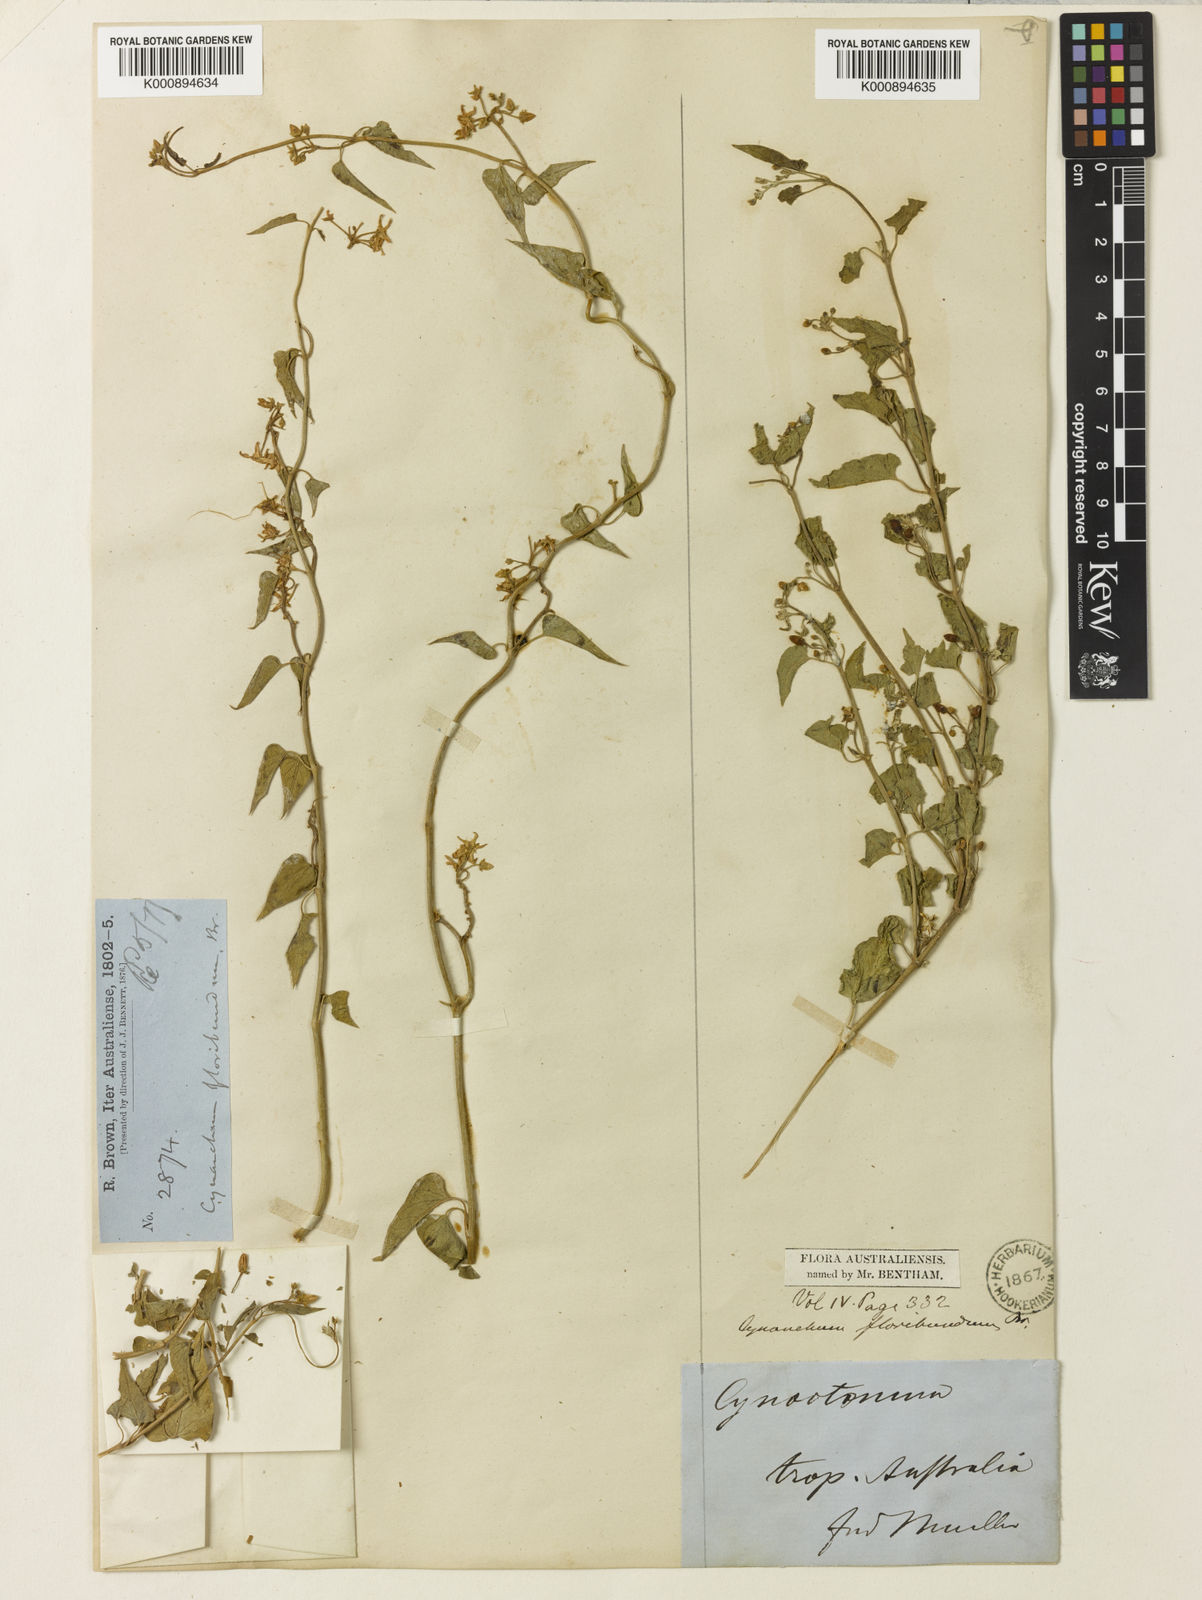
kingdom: Plantae
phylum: Tracheophyta
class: Magnoliopsida
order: Gentianales
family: Apocynaceae
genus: Vincetoxicum
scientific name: Vincetoxicum floribundum
